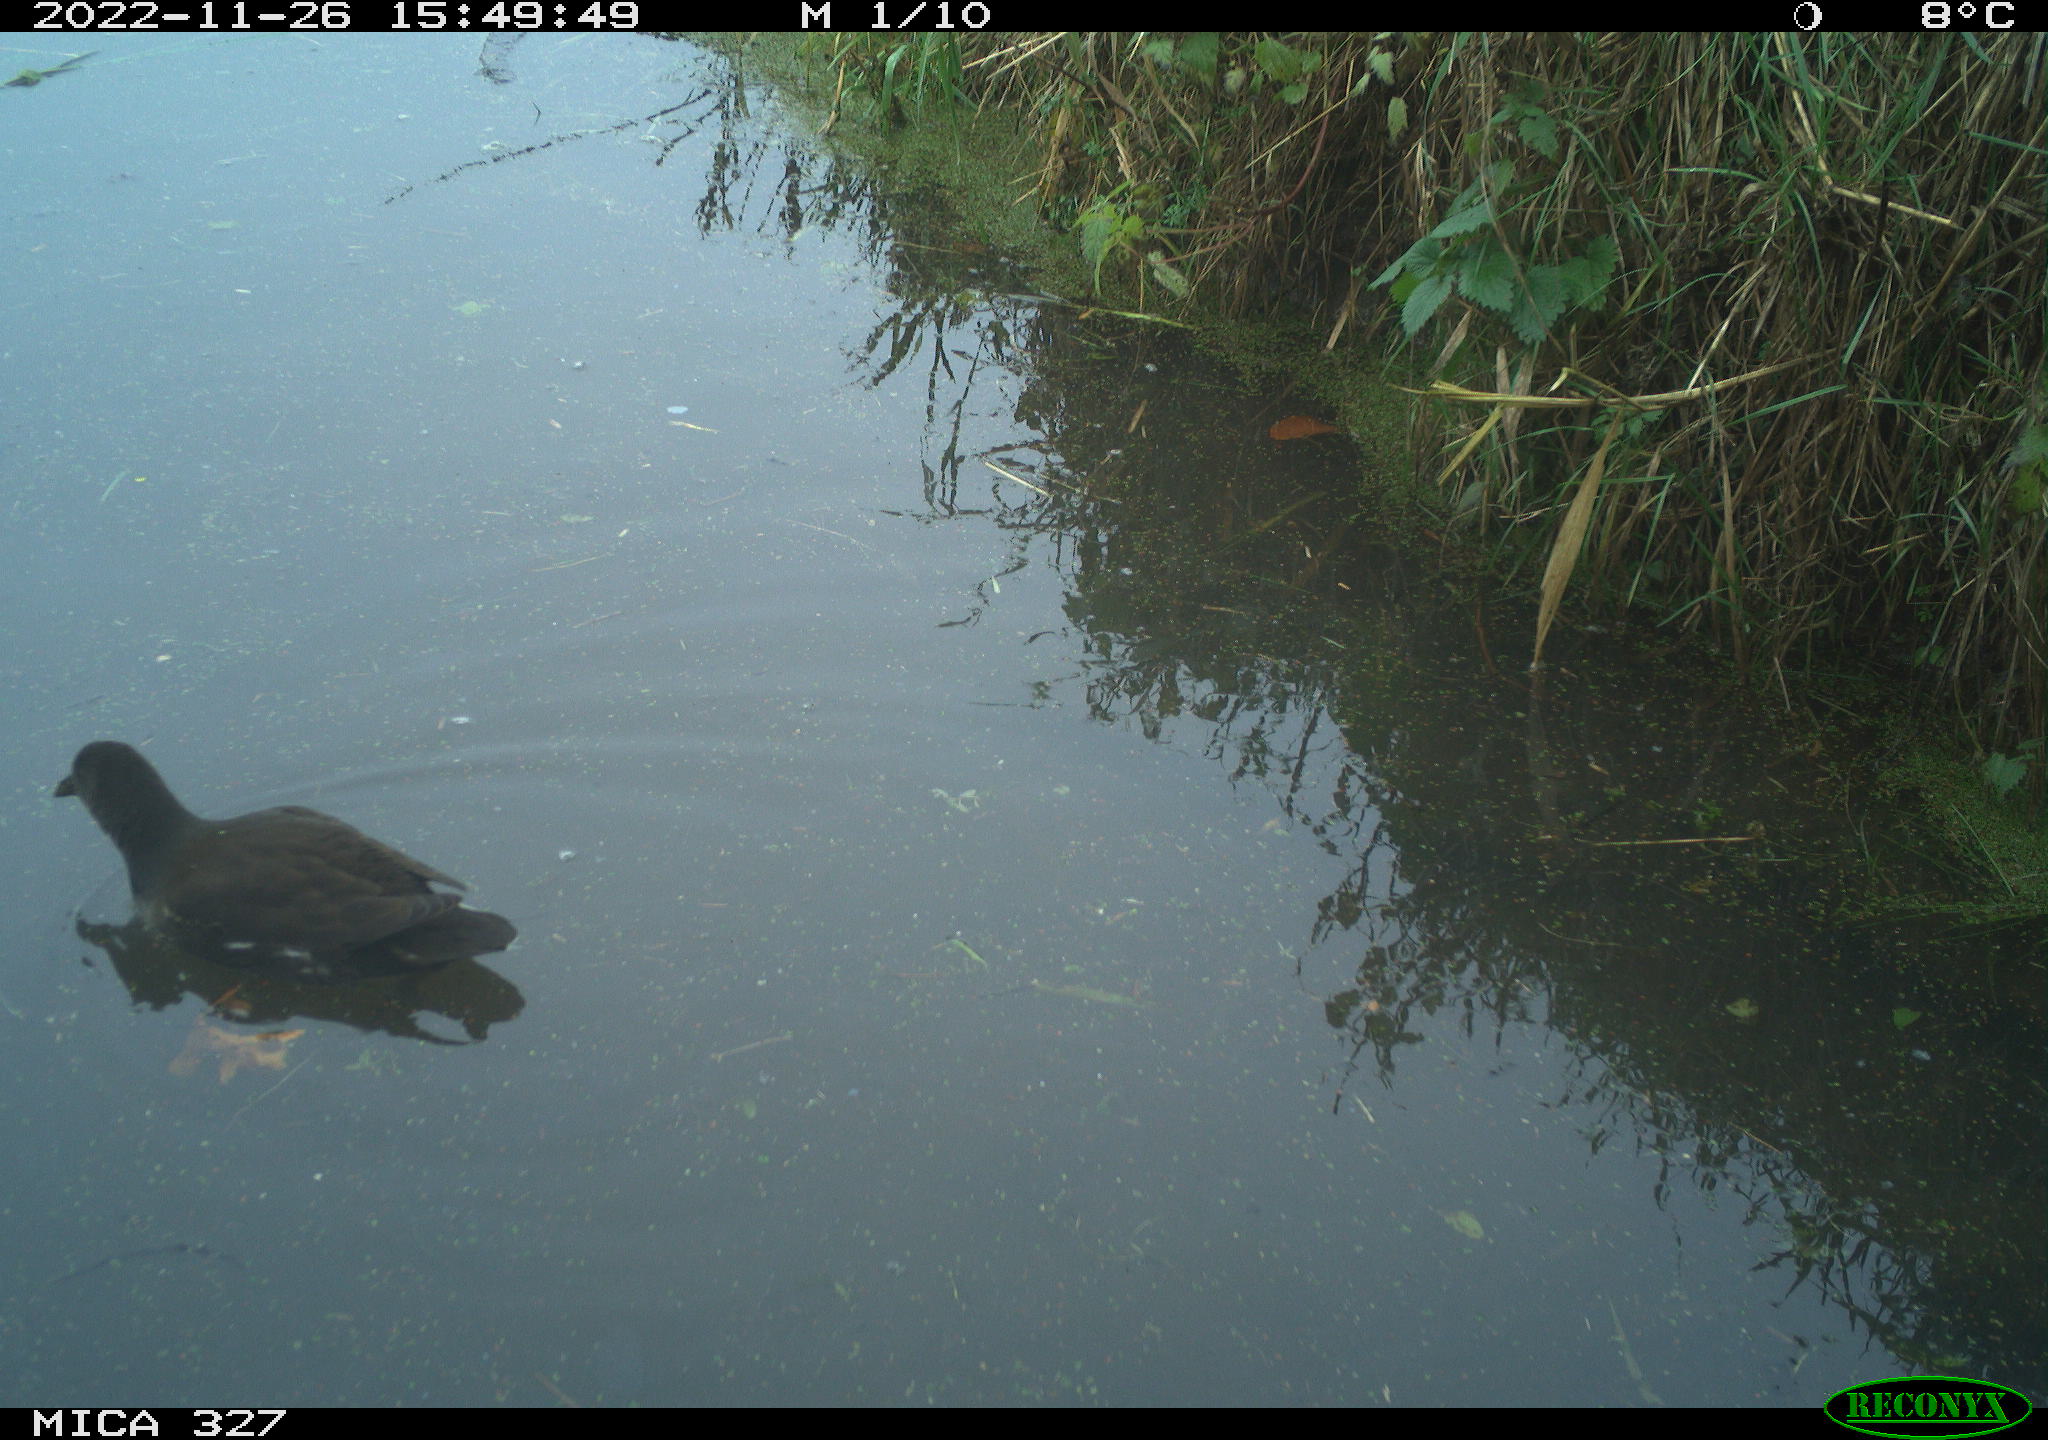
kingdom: Animalia
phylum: Chordata
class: Aves
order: Gruiformes
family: Rallidae
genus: Gallinula
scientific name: Gallinula chloropus
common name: Common moorhen
